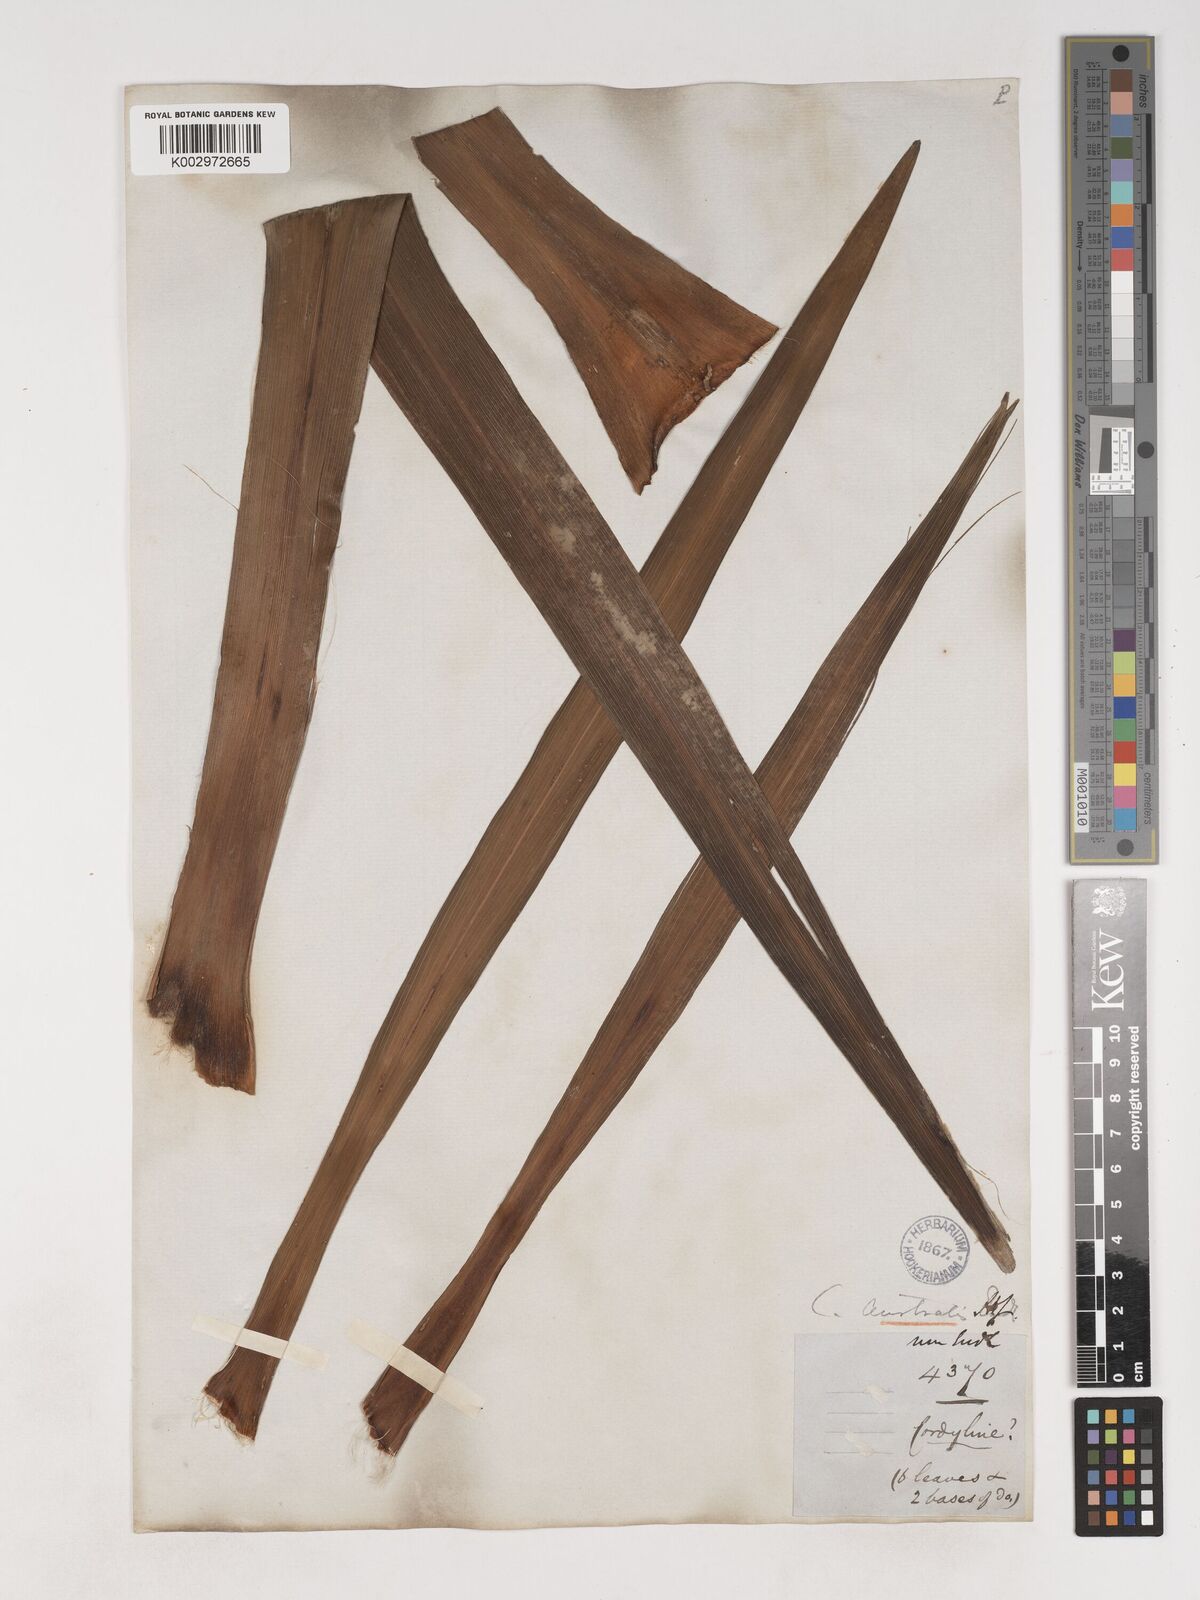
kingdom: Plantae
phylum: Tracheophyta
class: Liliopsida
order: Asparagales
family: Asparagaceae
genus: Cordyline
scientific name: Cordyline australis
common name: Cabbage-palm
